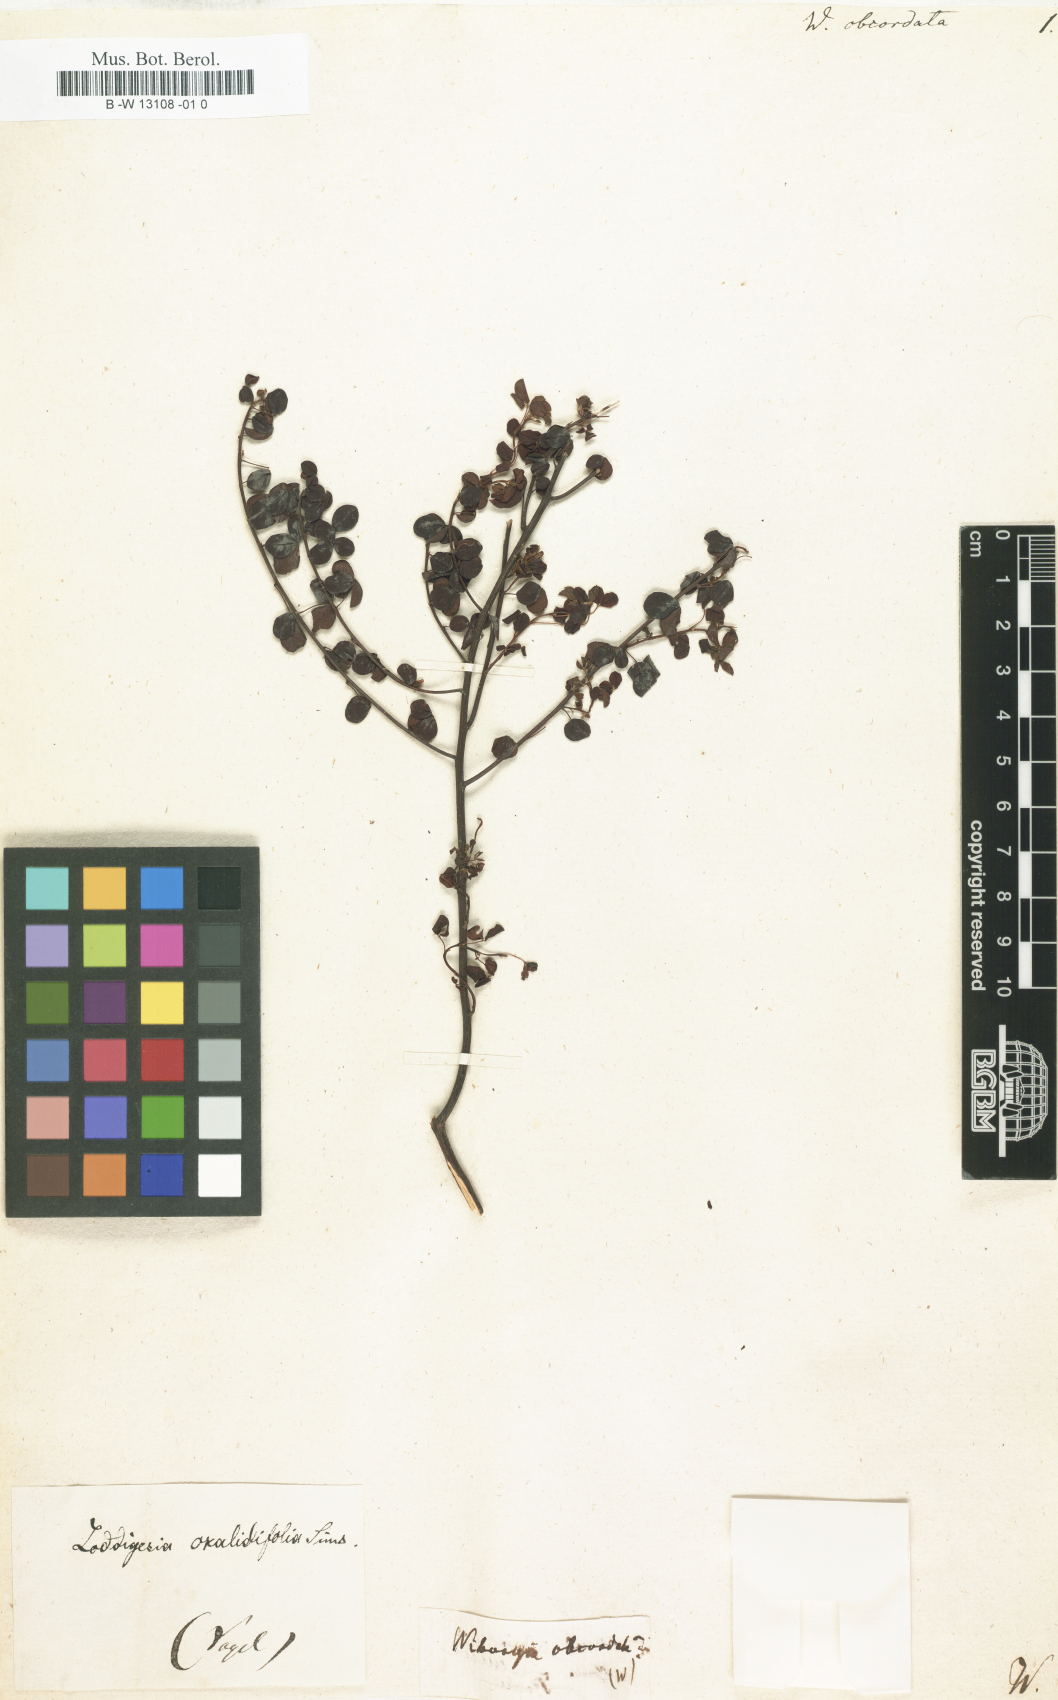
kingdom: Plantae
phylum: Tracheophyta
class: Magnoliopsida
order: Fabales
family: Fabaceae
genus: Wiborgia
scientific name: Wiborgia obcordata
